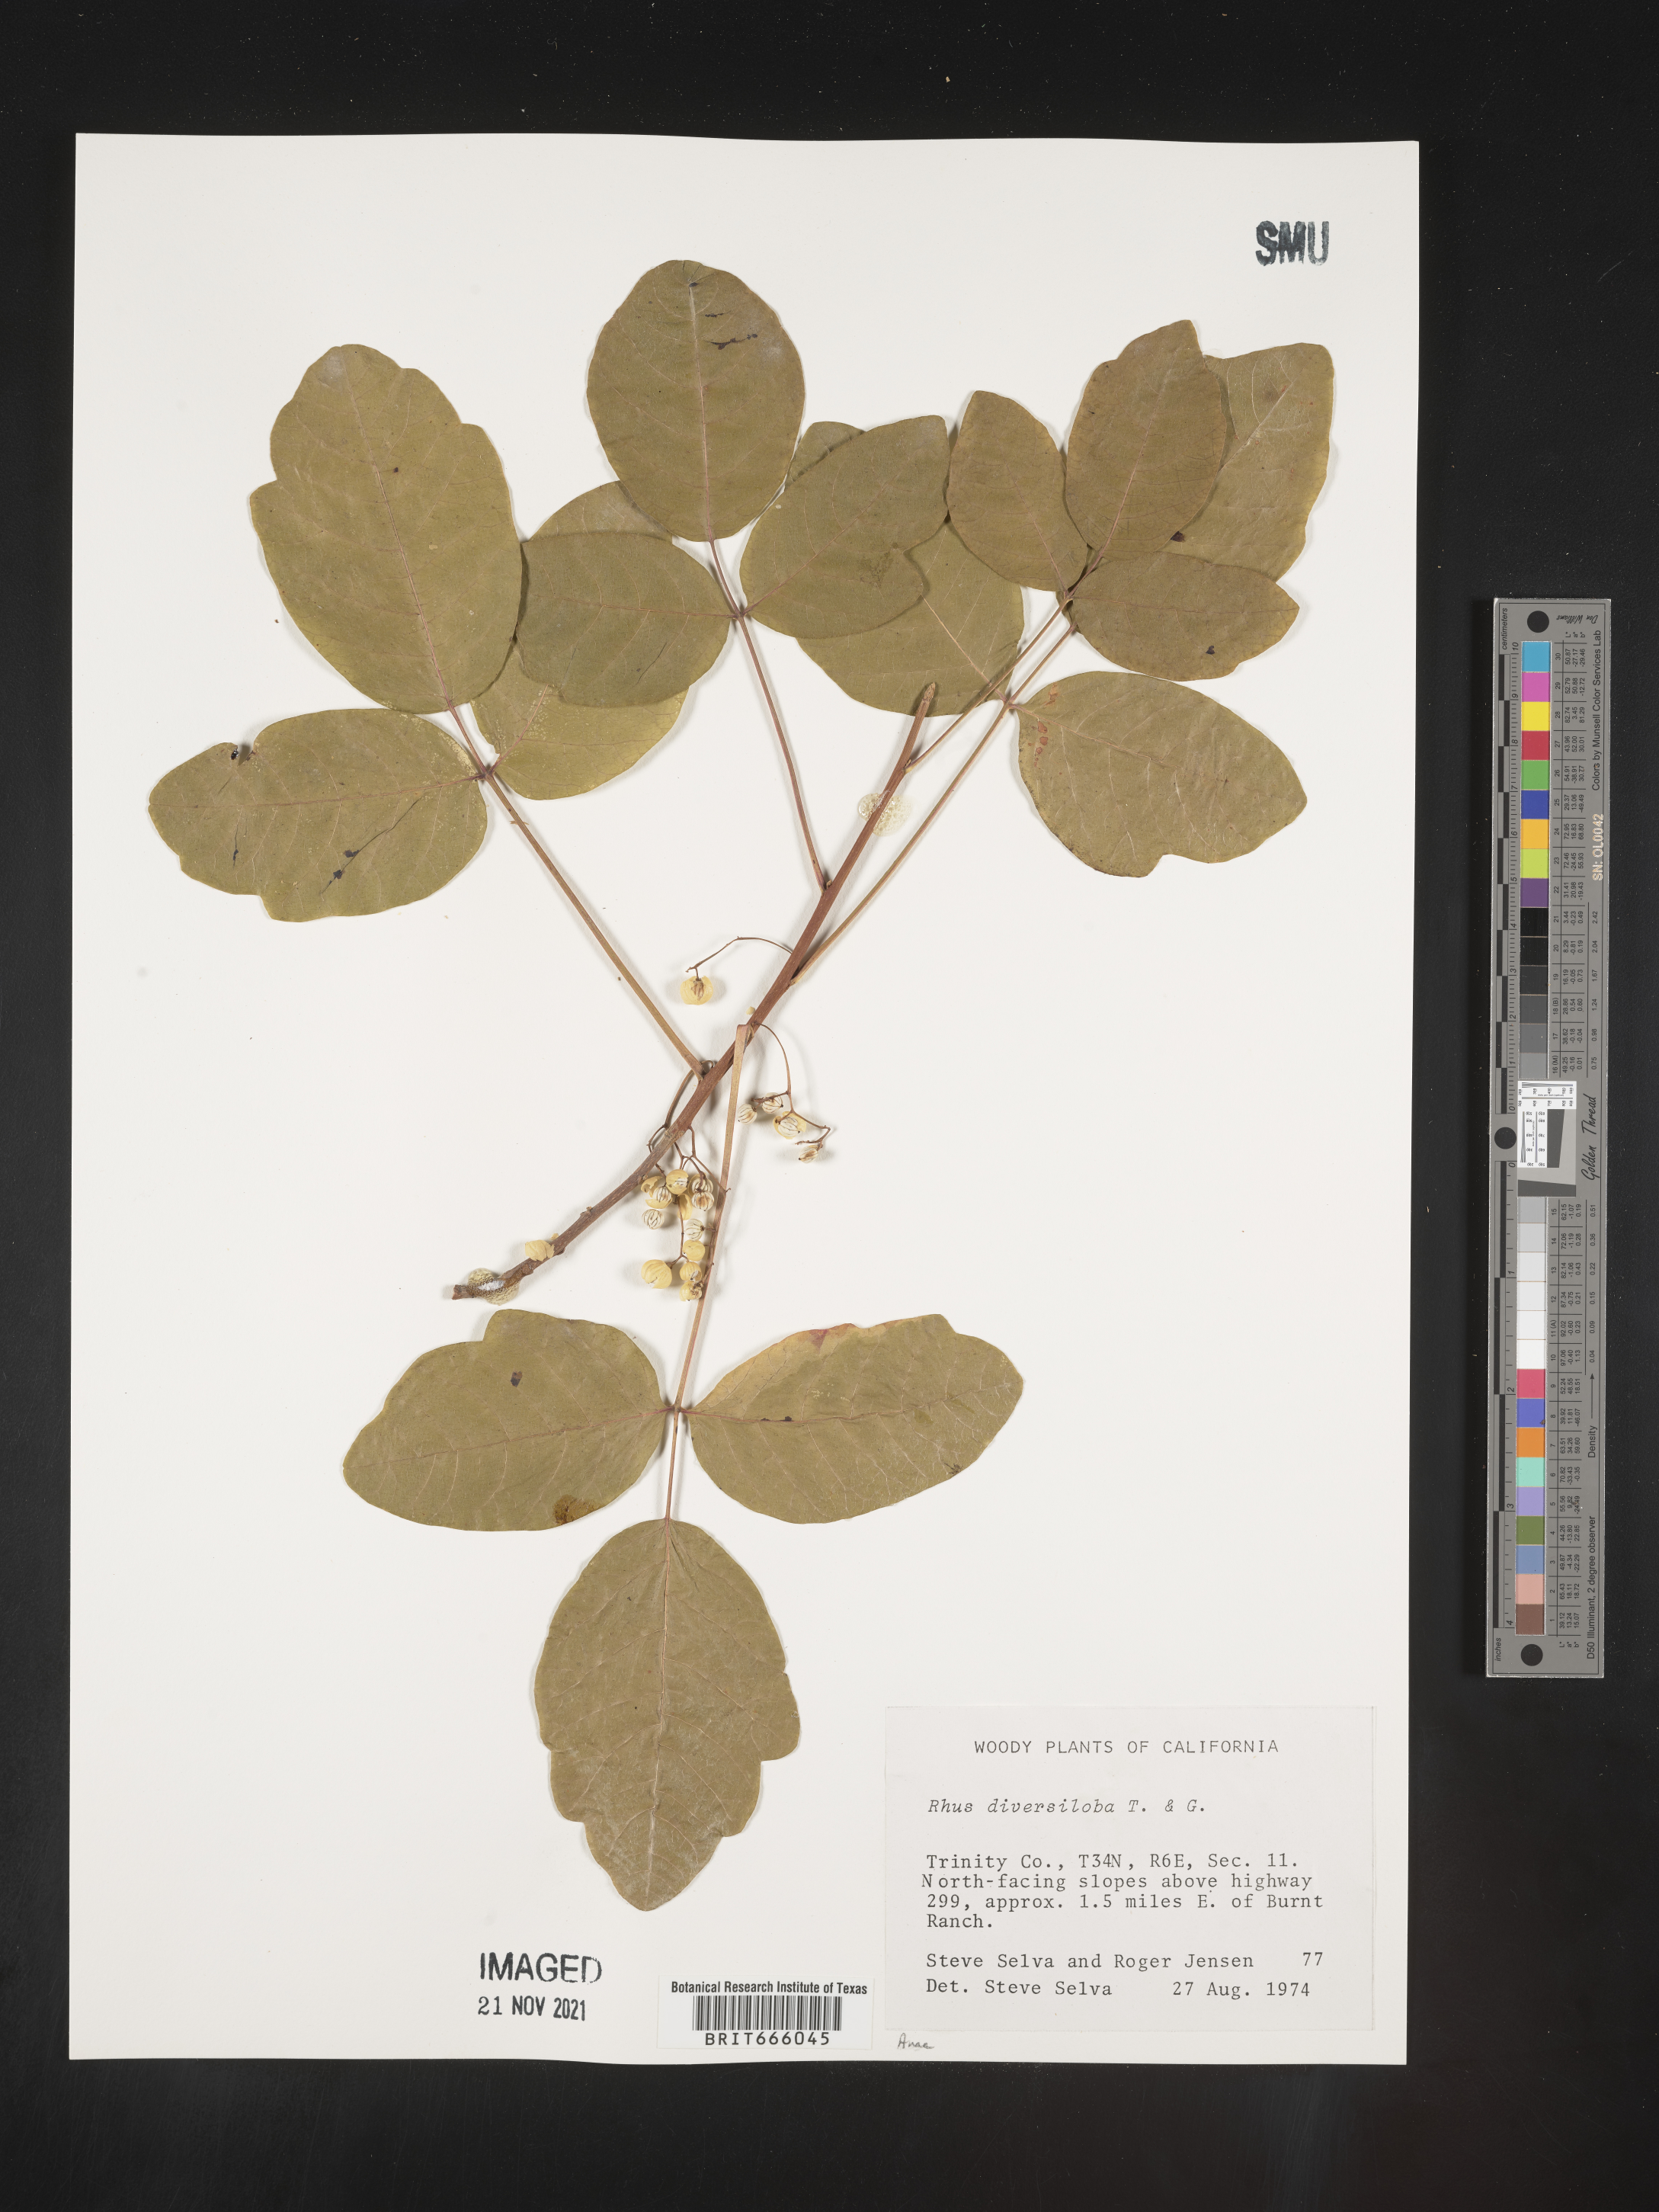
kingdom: Plantae
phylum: Tracheophyta
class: Magnoliopsida
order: Sapindales
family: Anacardiaceae
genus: Rhus
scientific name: Rhus
